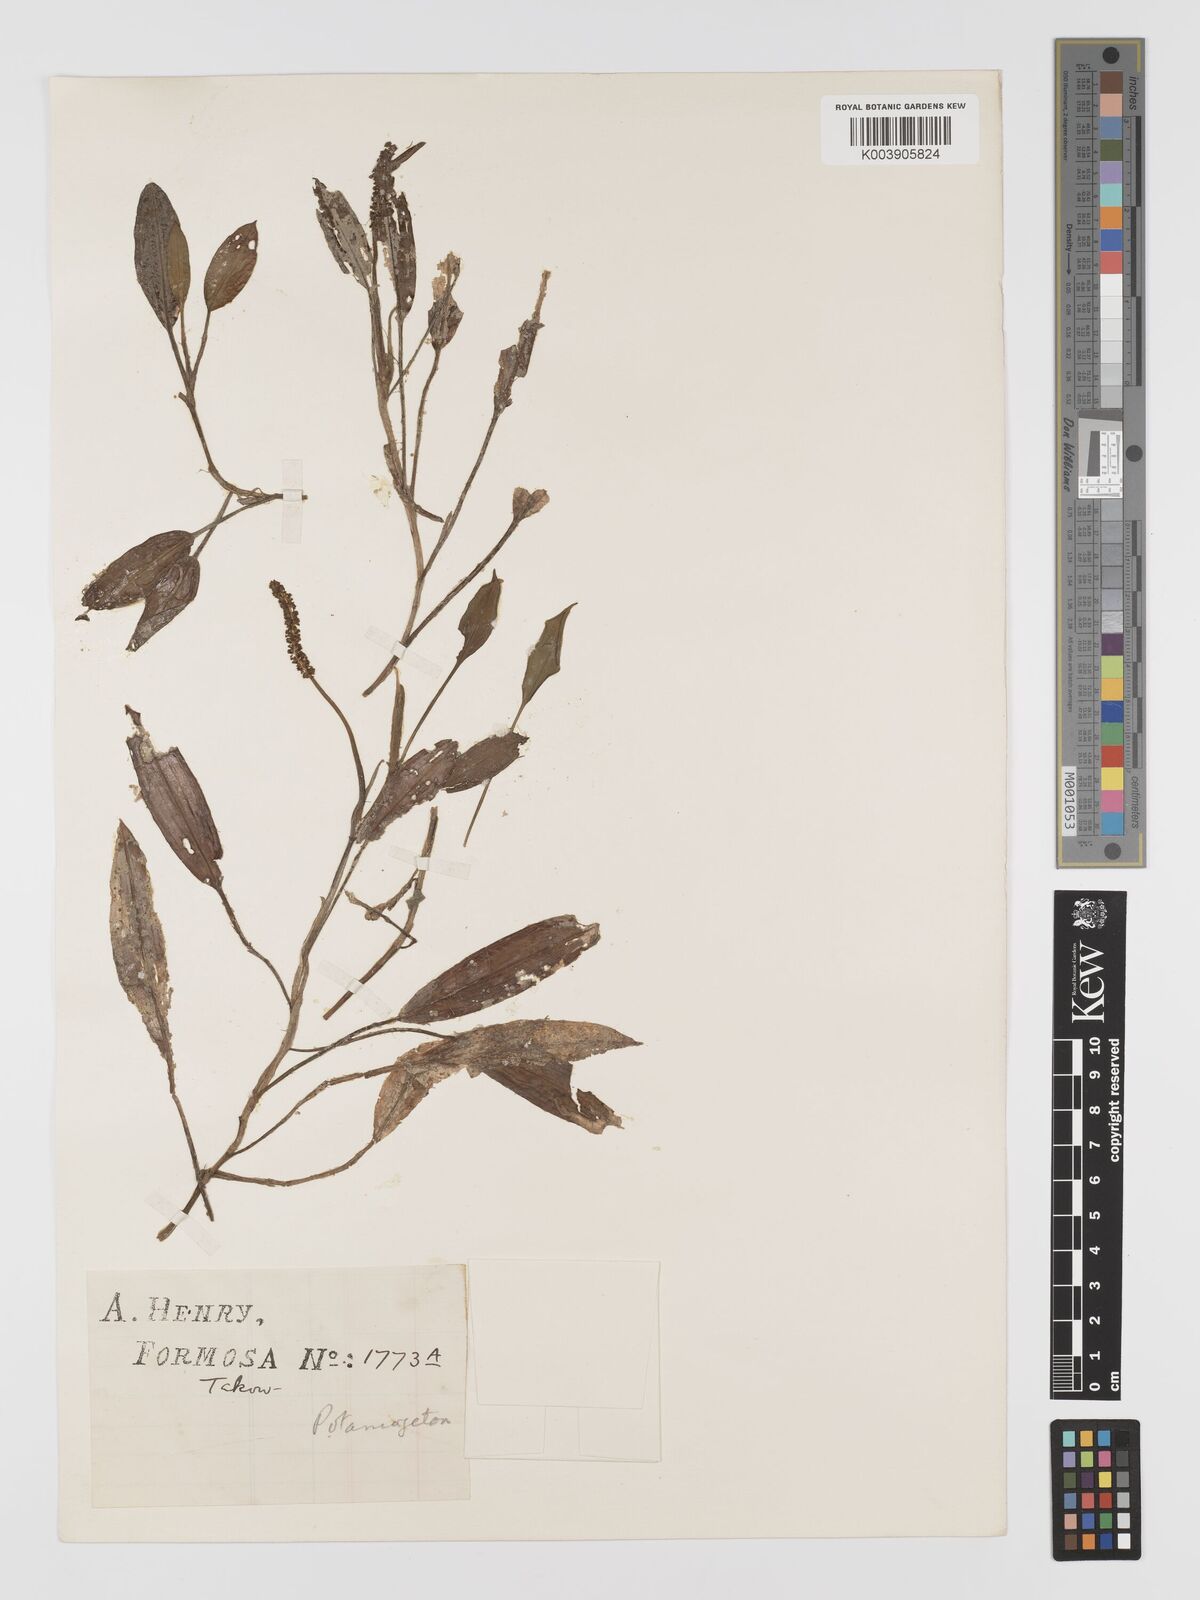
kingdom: Plantae
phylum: Tracheophyta
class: Liliopsida
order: Alismatales
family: Potamogetonaceae
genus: Potamogeton
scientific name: Potamogeton nodosus
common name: Loddon pondweed
